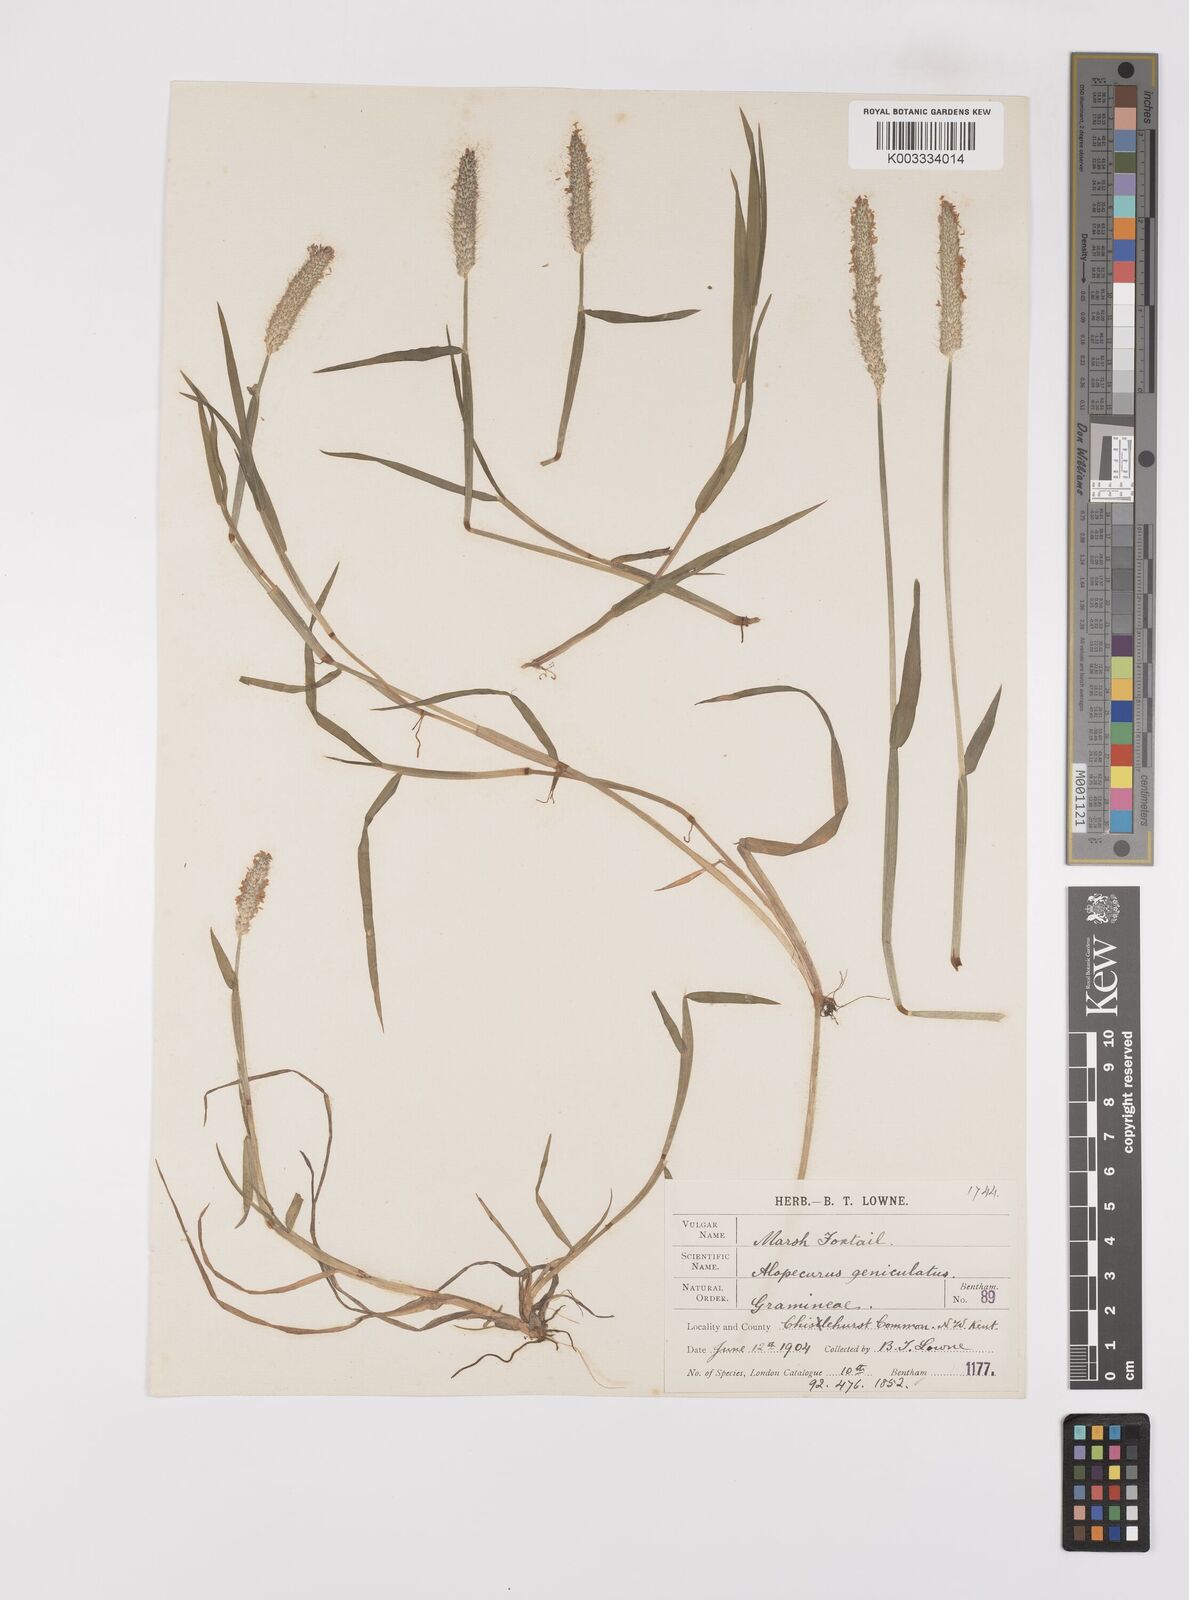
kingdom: Plantae
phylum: Tracheophyta
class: Liliopsida
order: Poales
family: Poaceae
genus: Alopecurus
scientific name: Alopecurus geniculatus
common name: Water foxtail
